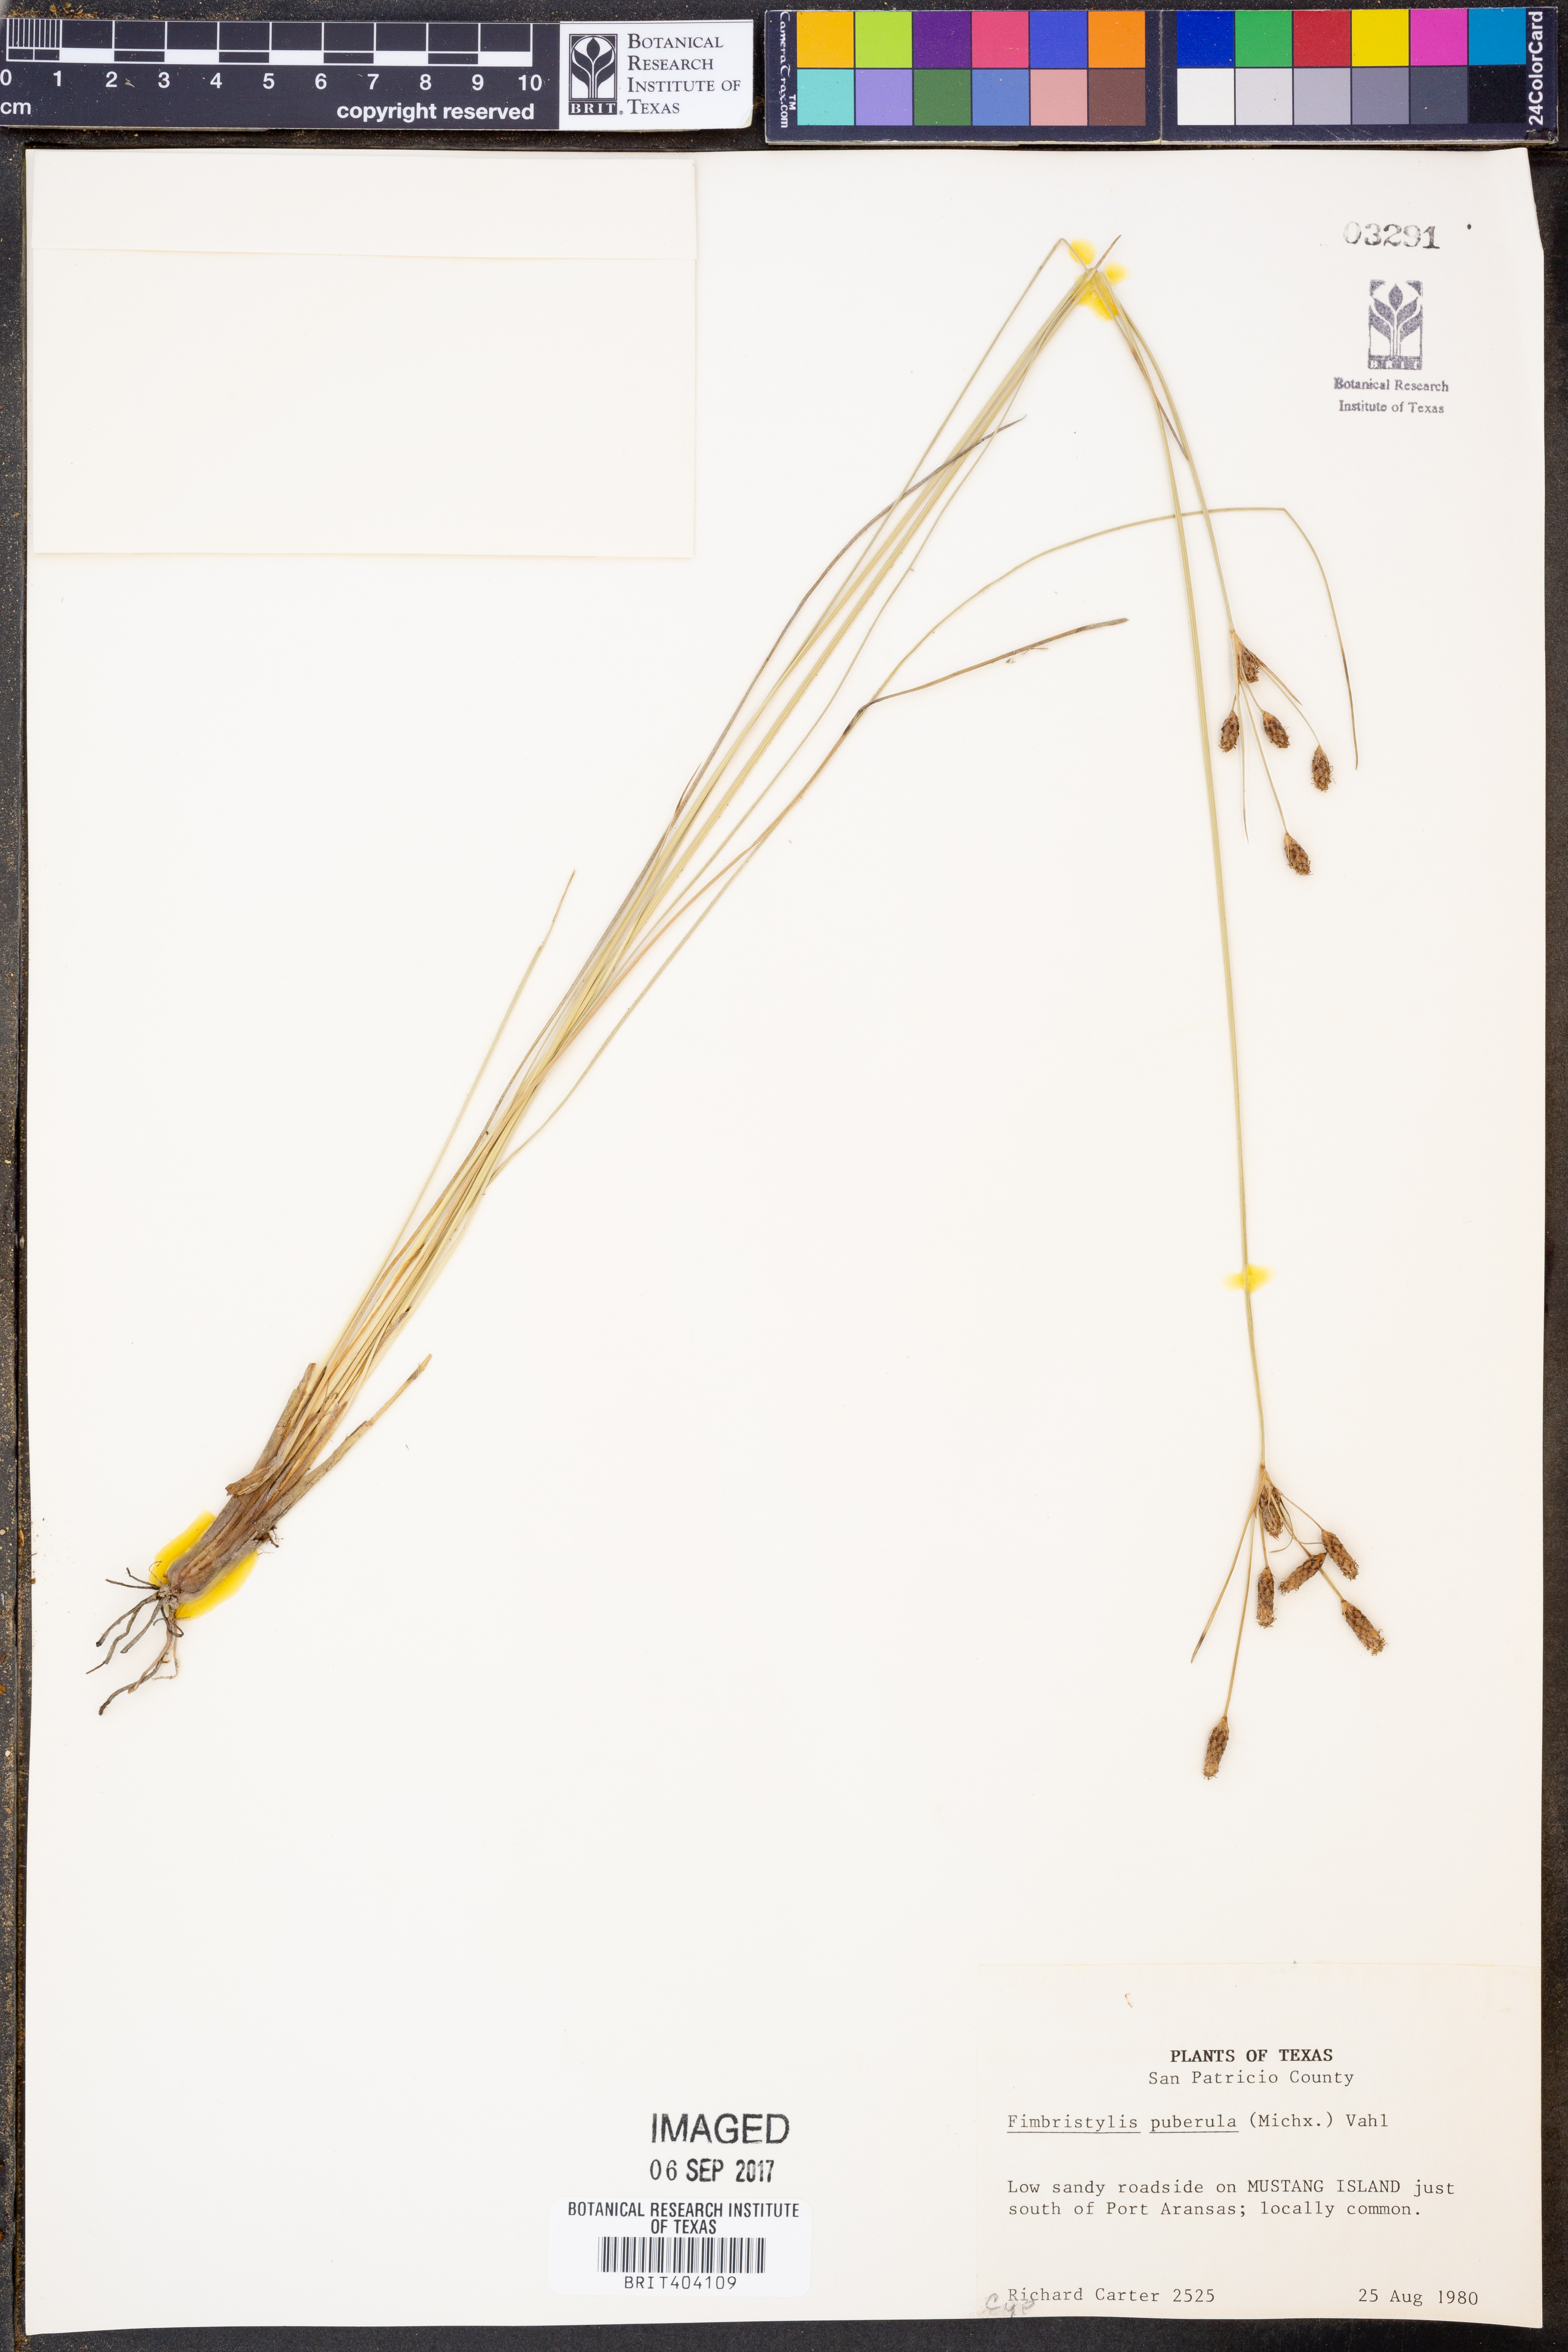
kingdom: Plantae
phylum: Tracheophyta
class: Liliopsida
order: Poales
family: Cyperaceae
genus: Fimbristylis
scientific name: Fimbristylis puberula
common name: Hairy fimbristylis
